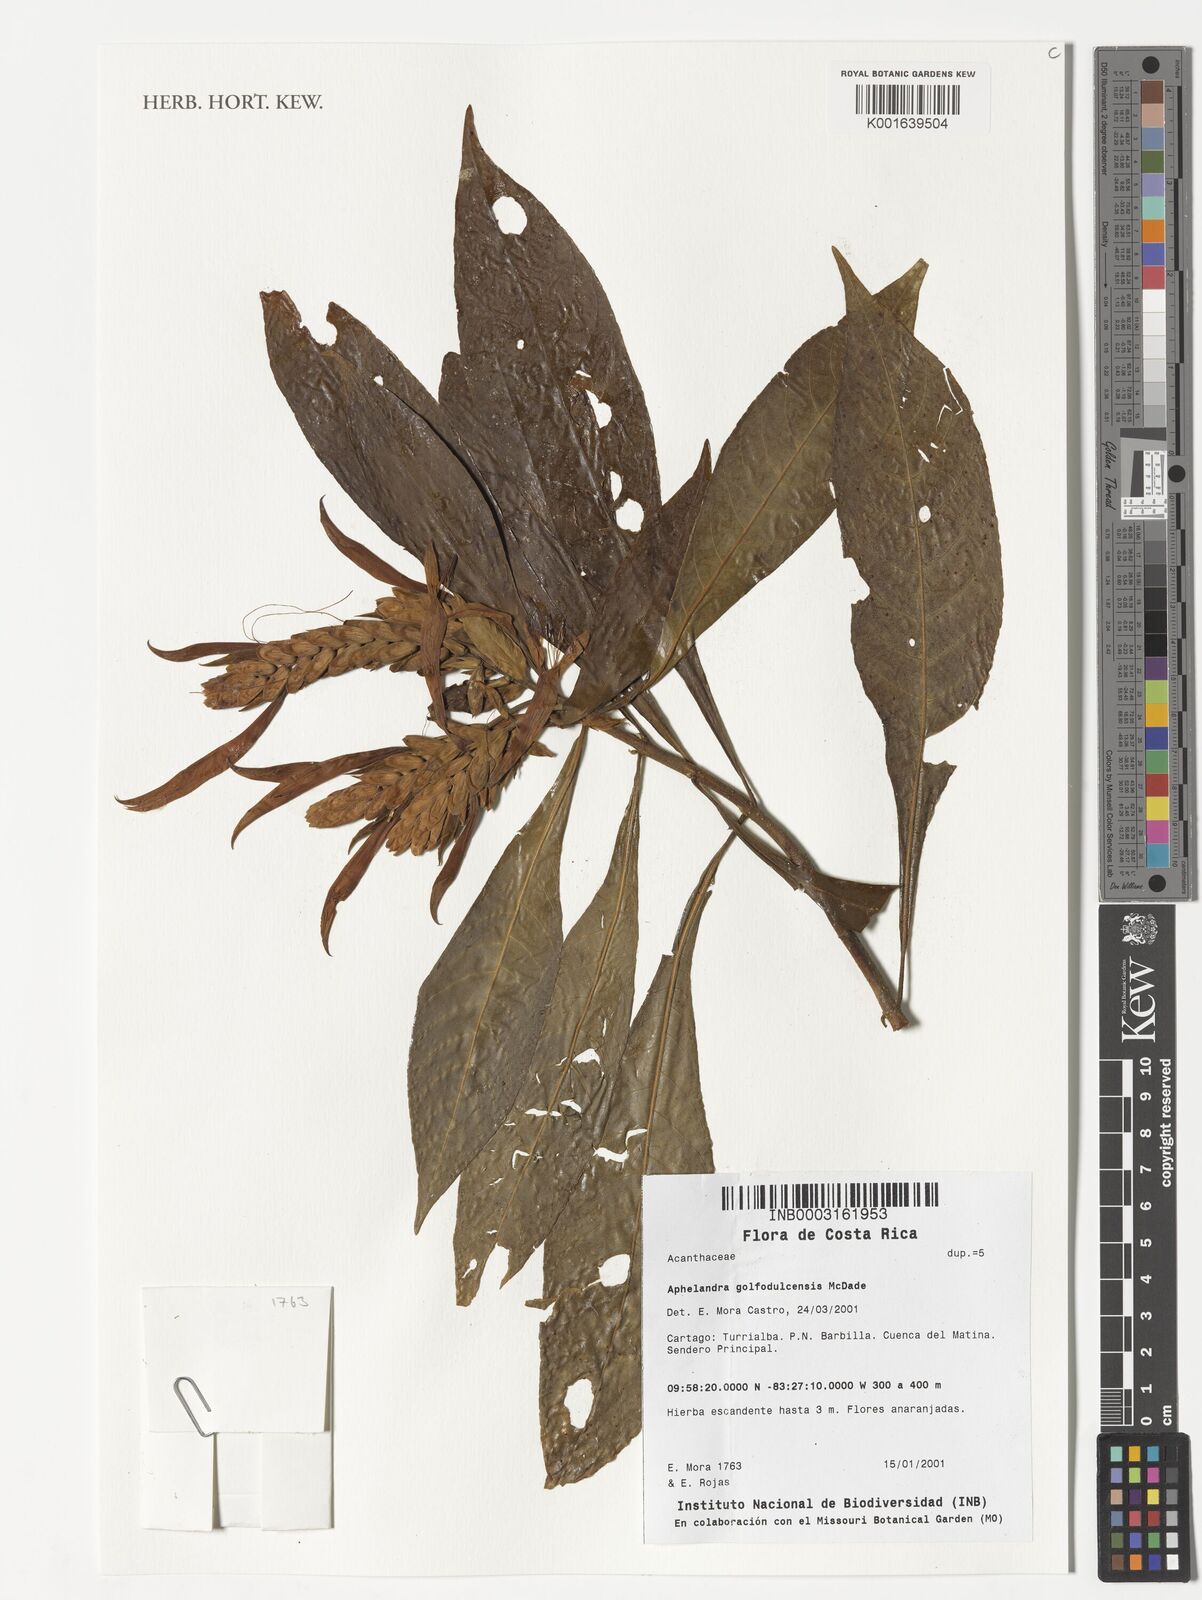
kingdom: Plantae
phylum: Tracheophyta
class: Magnoliopsida
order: Lamiales
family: Acanthaceae
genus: Aphelandra
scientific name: Aphelandra golfodulcensis
